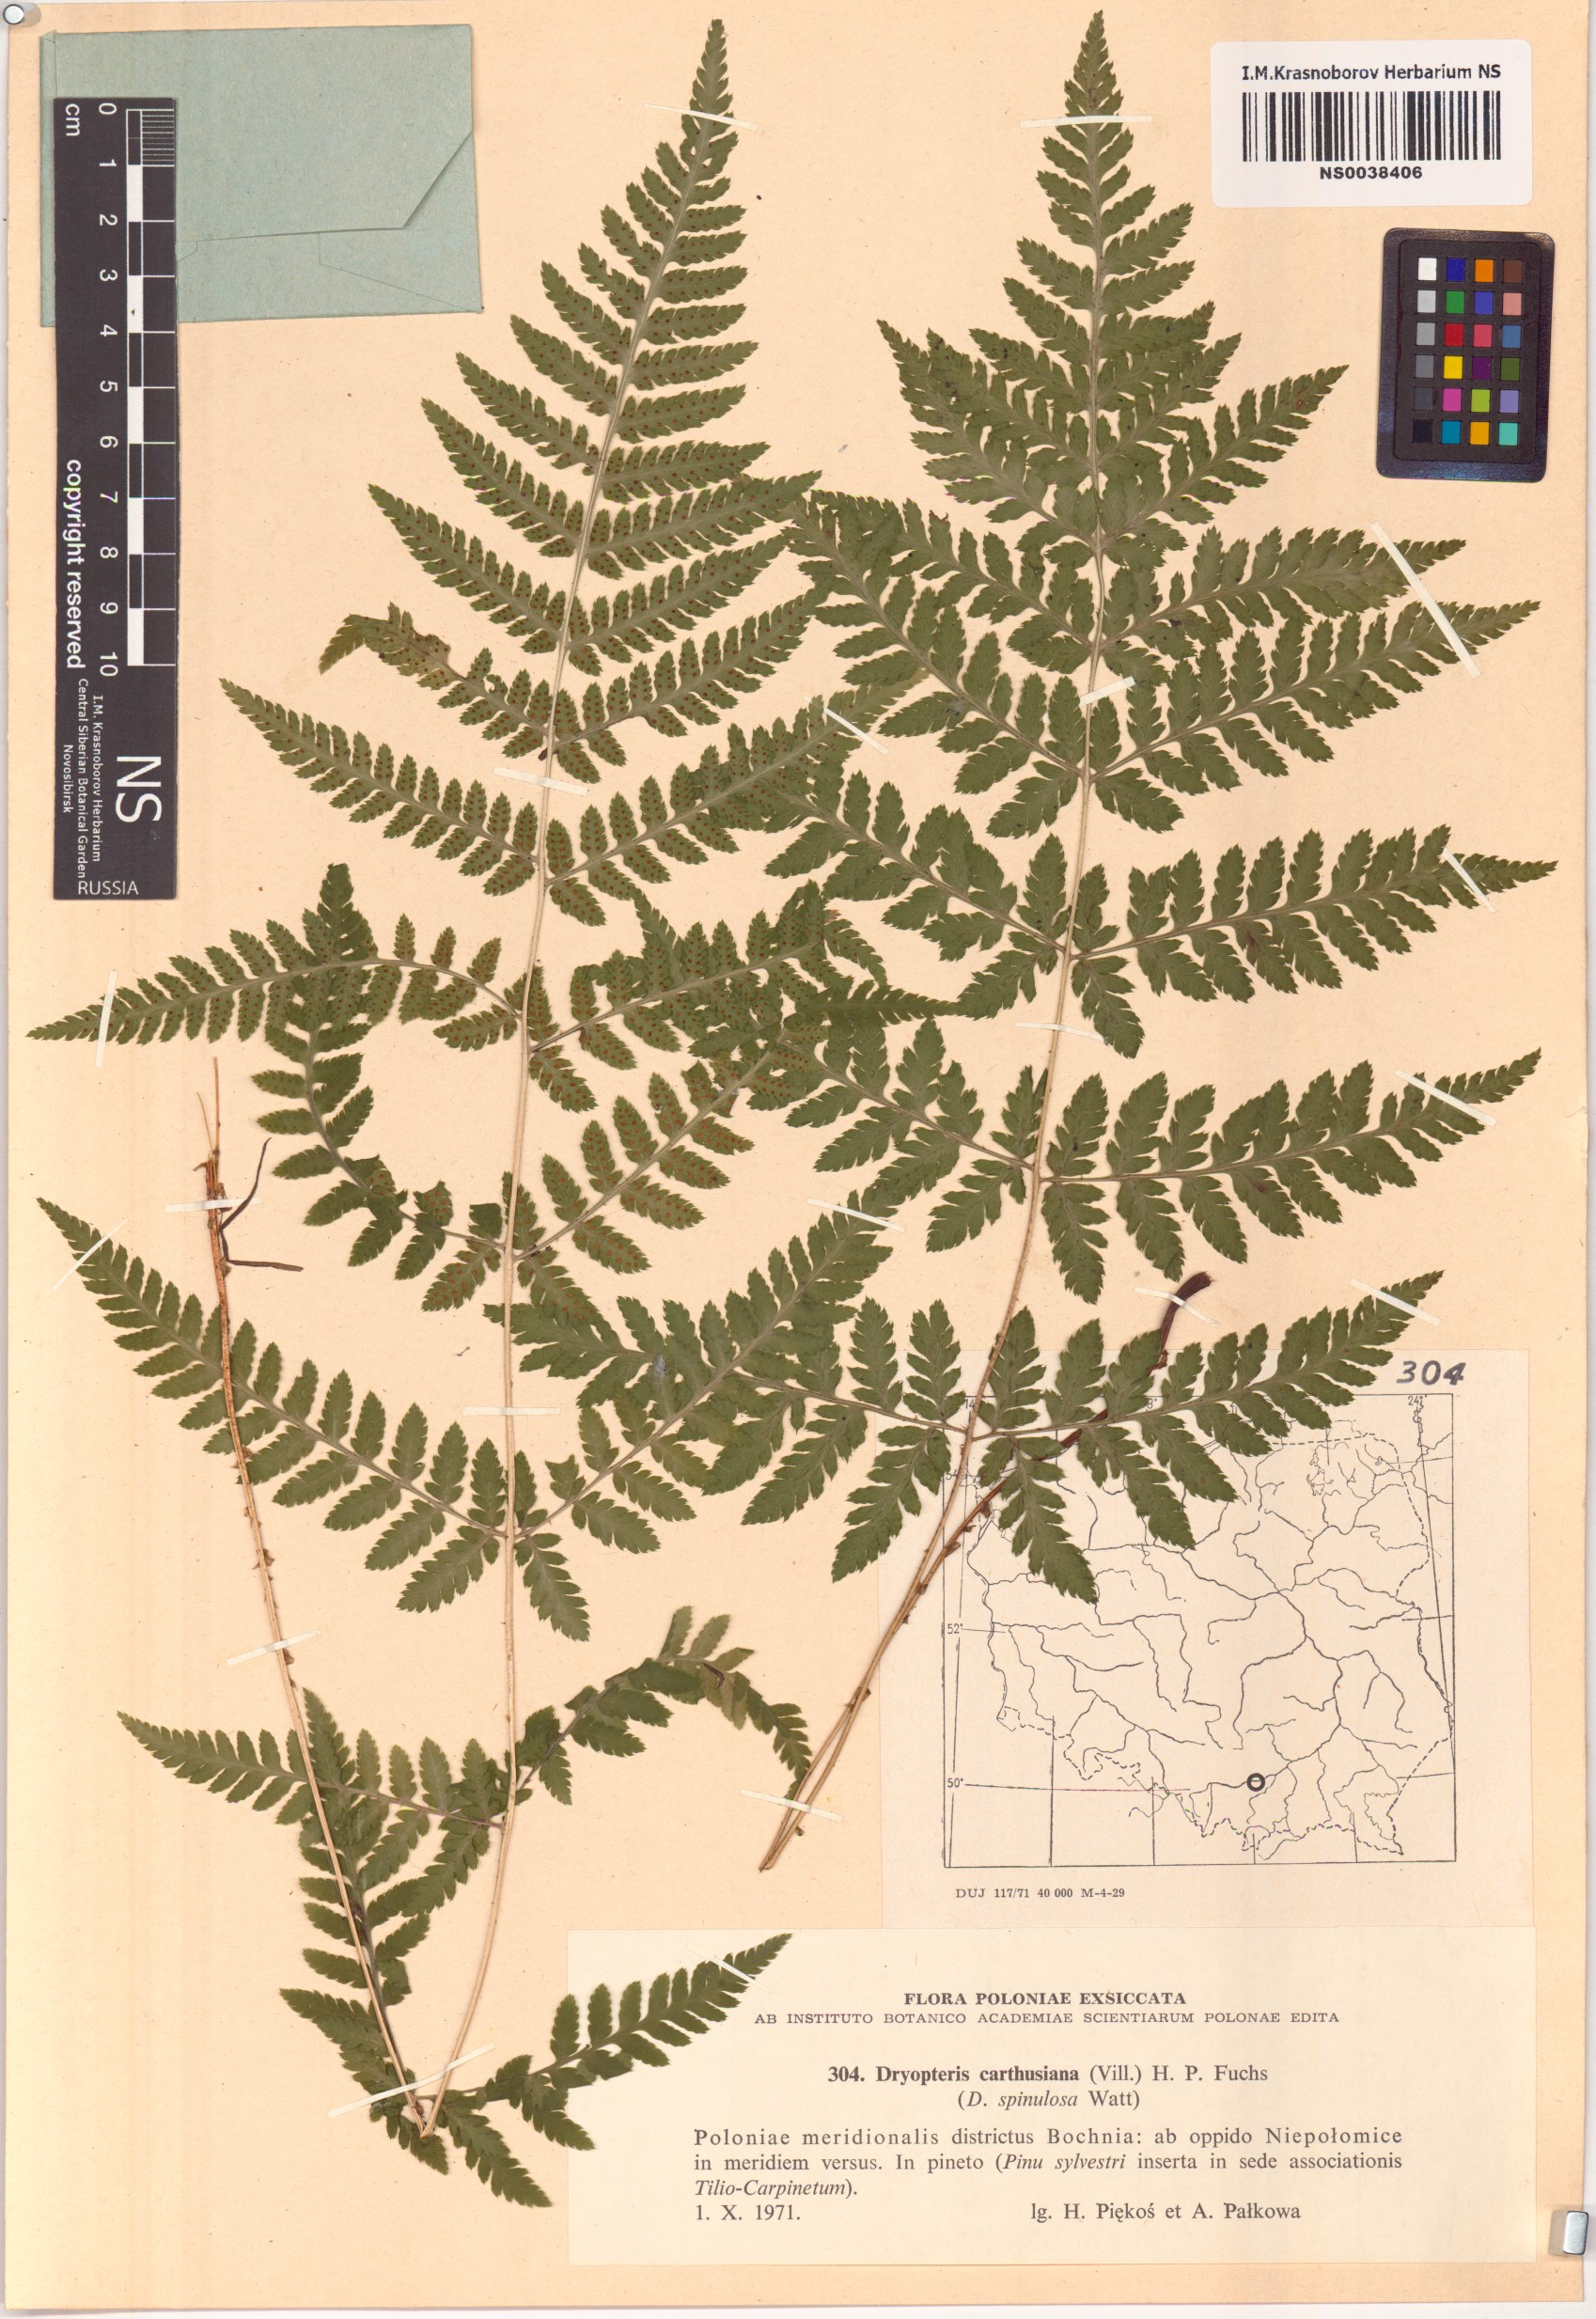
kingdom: Plantae
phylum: Tracheophyta
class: Polypodiopsida
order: Polypodiales
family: Dryopteridaceae
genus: Dryopteris
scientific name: Dryopteris carthusiana
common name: Narrow buckler-fern
